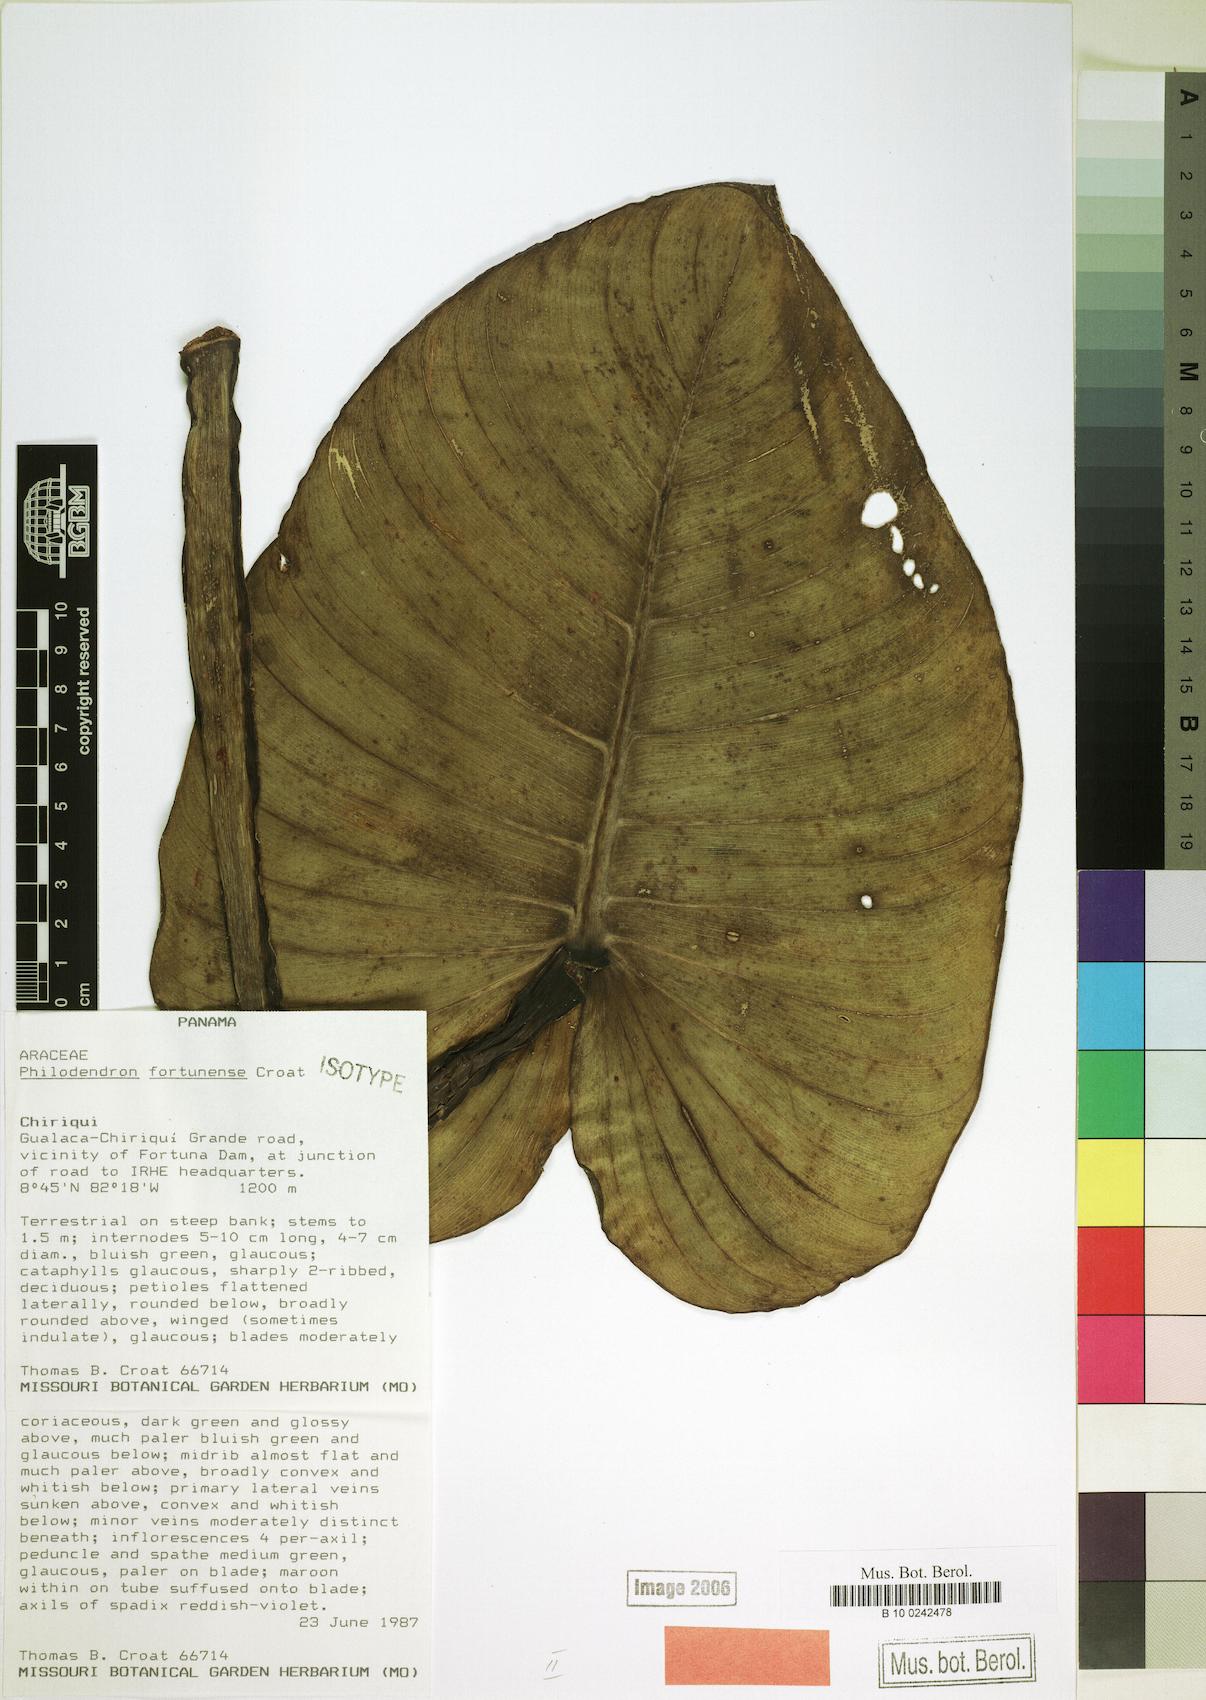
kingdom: Plantae
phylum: Tracheophyta
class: Liliopsida
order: Alismatales
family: Araceae
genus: Philodendron
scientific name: Philodendron fortunense
